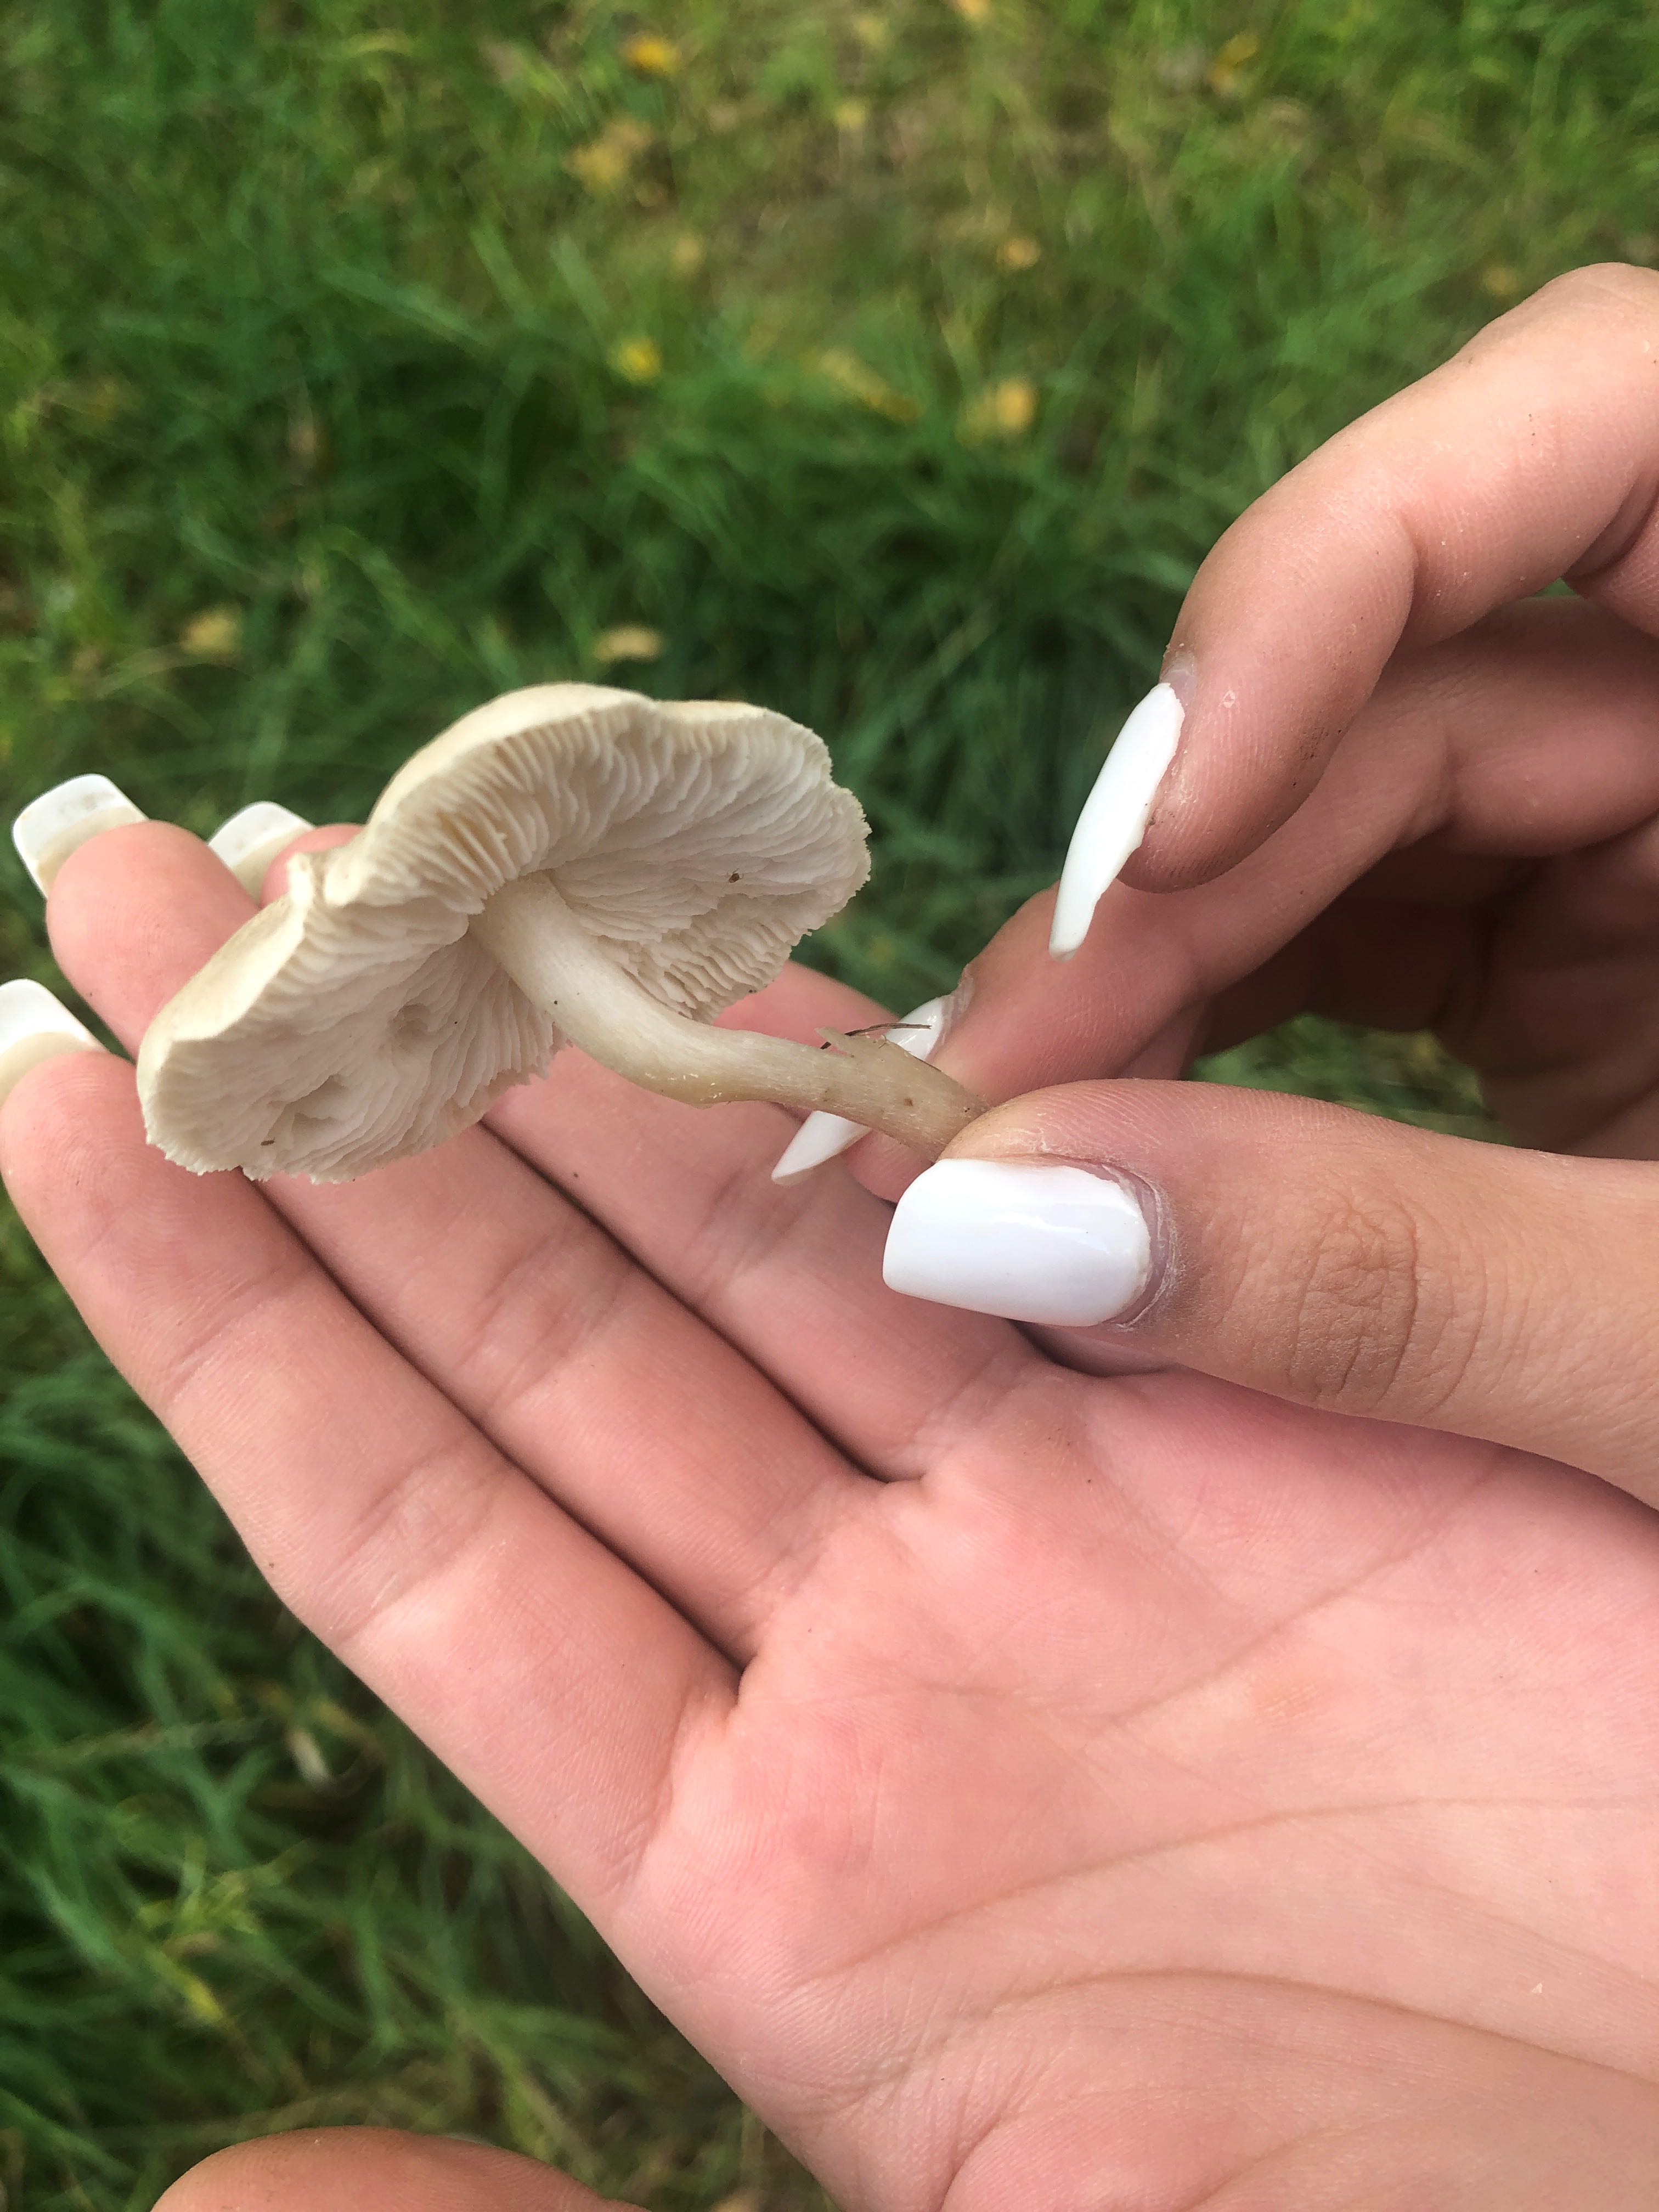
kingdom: Fungi
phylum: Basidiomycota
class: Agaricomycetes
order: Agaricales
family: Tricholomataceae
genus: Tricholoma
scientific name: Tricholoma
